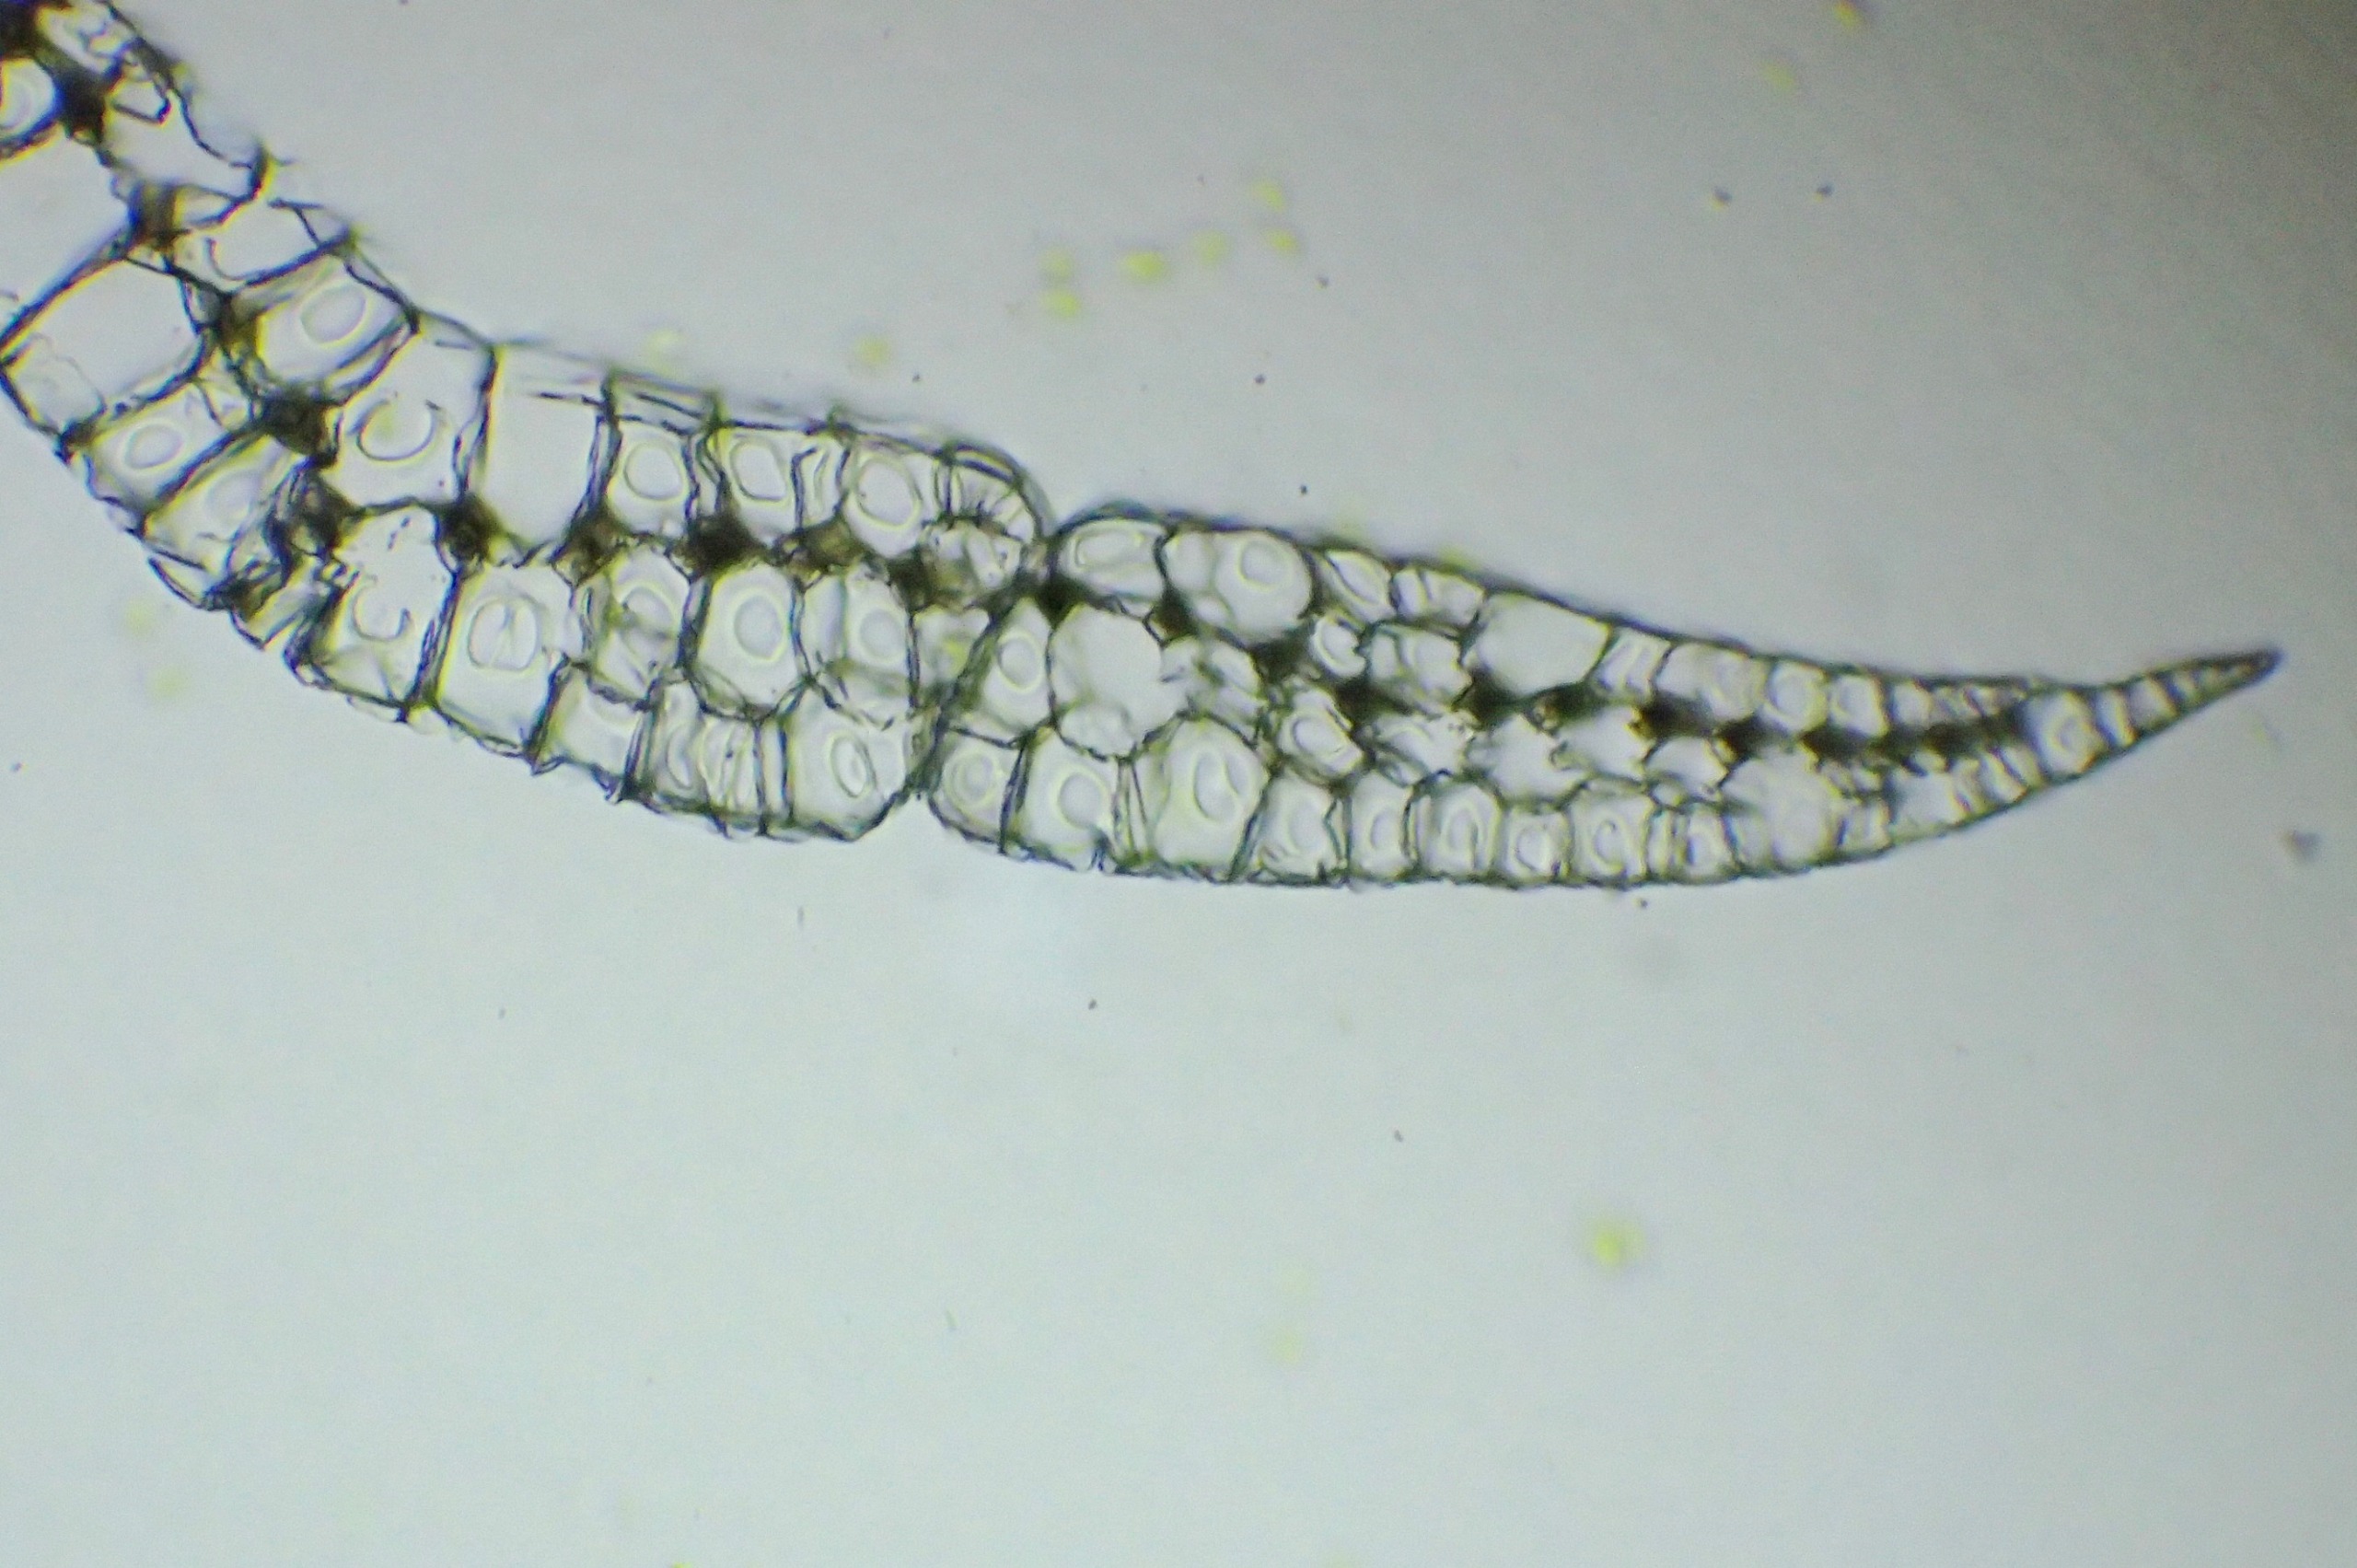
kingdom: Plantae
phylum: Bryophyta
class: Bryopsida
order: Dicranales
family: Leucobryaceae
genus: Leucobryum
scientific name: Leucobryum glaucum
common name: Almindelig hvidmos
